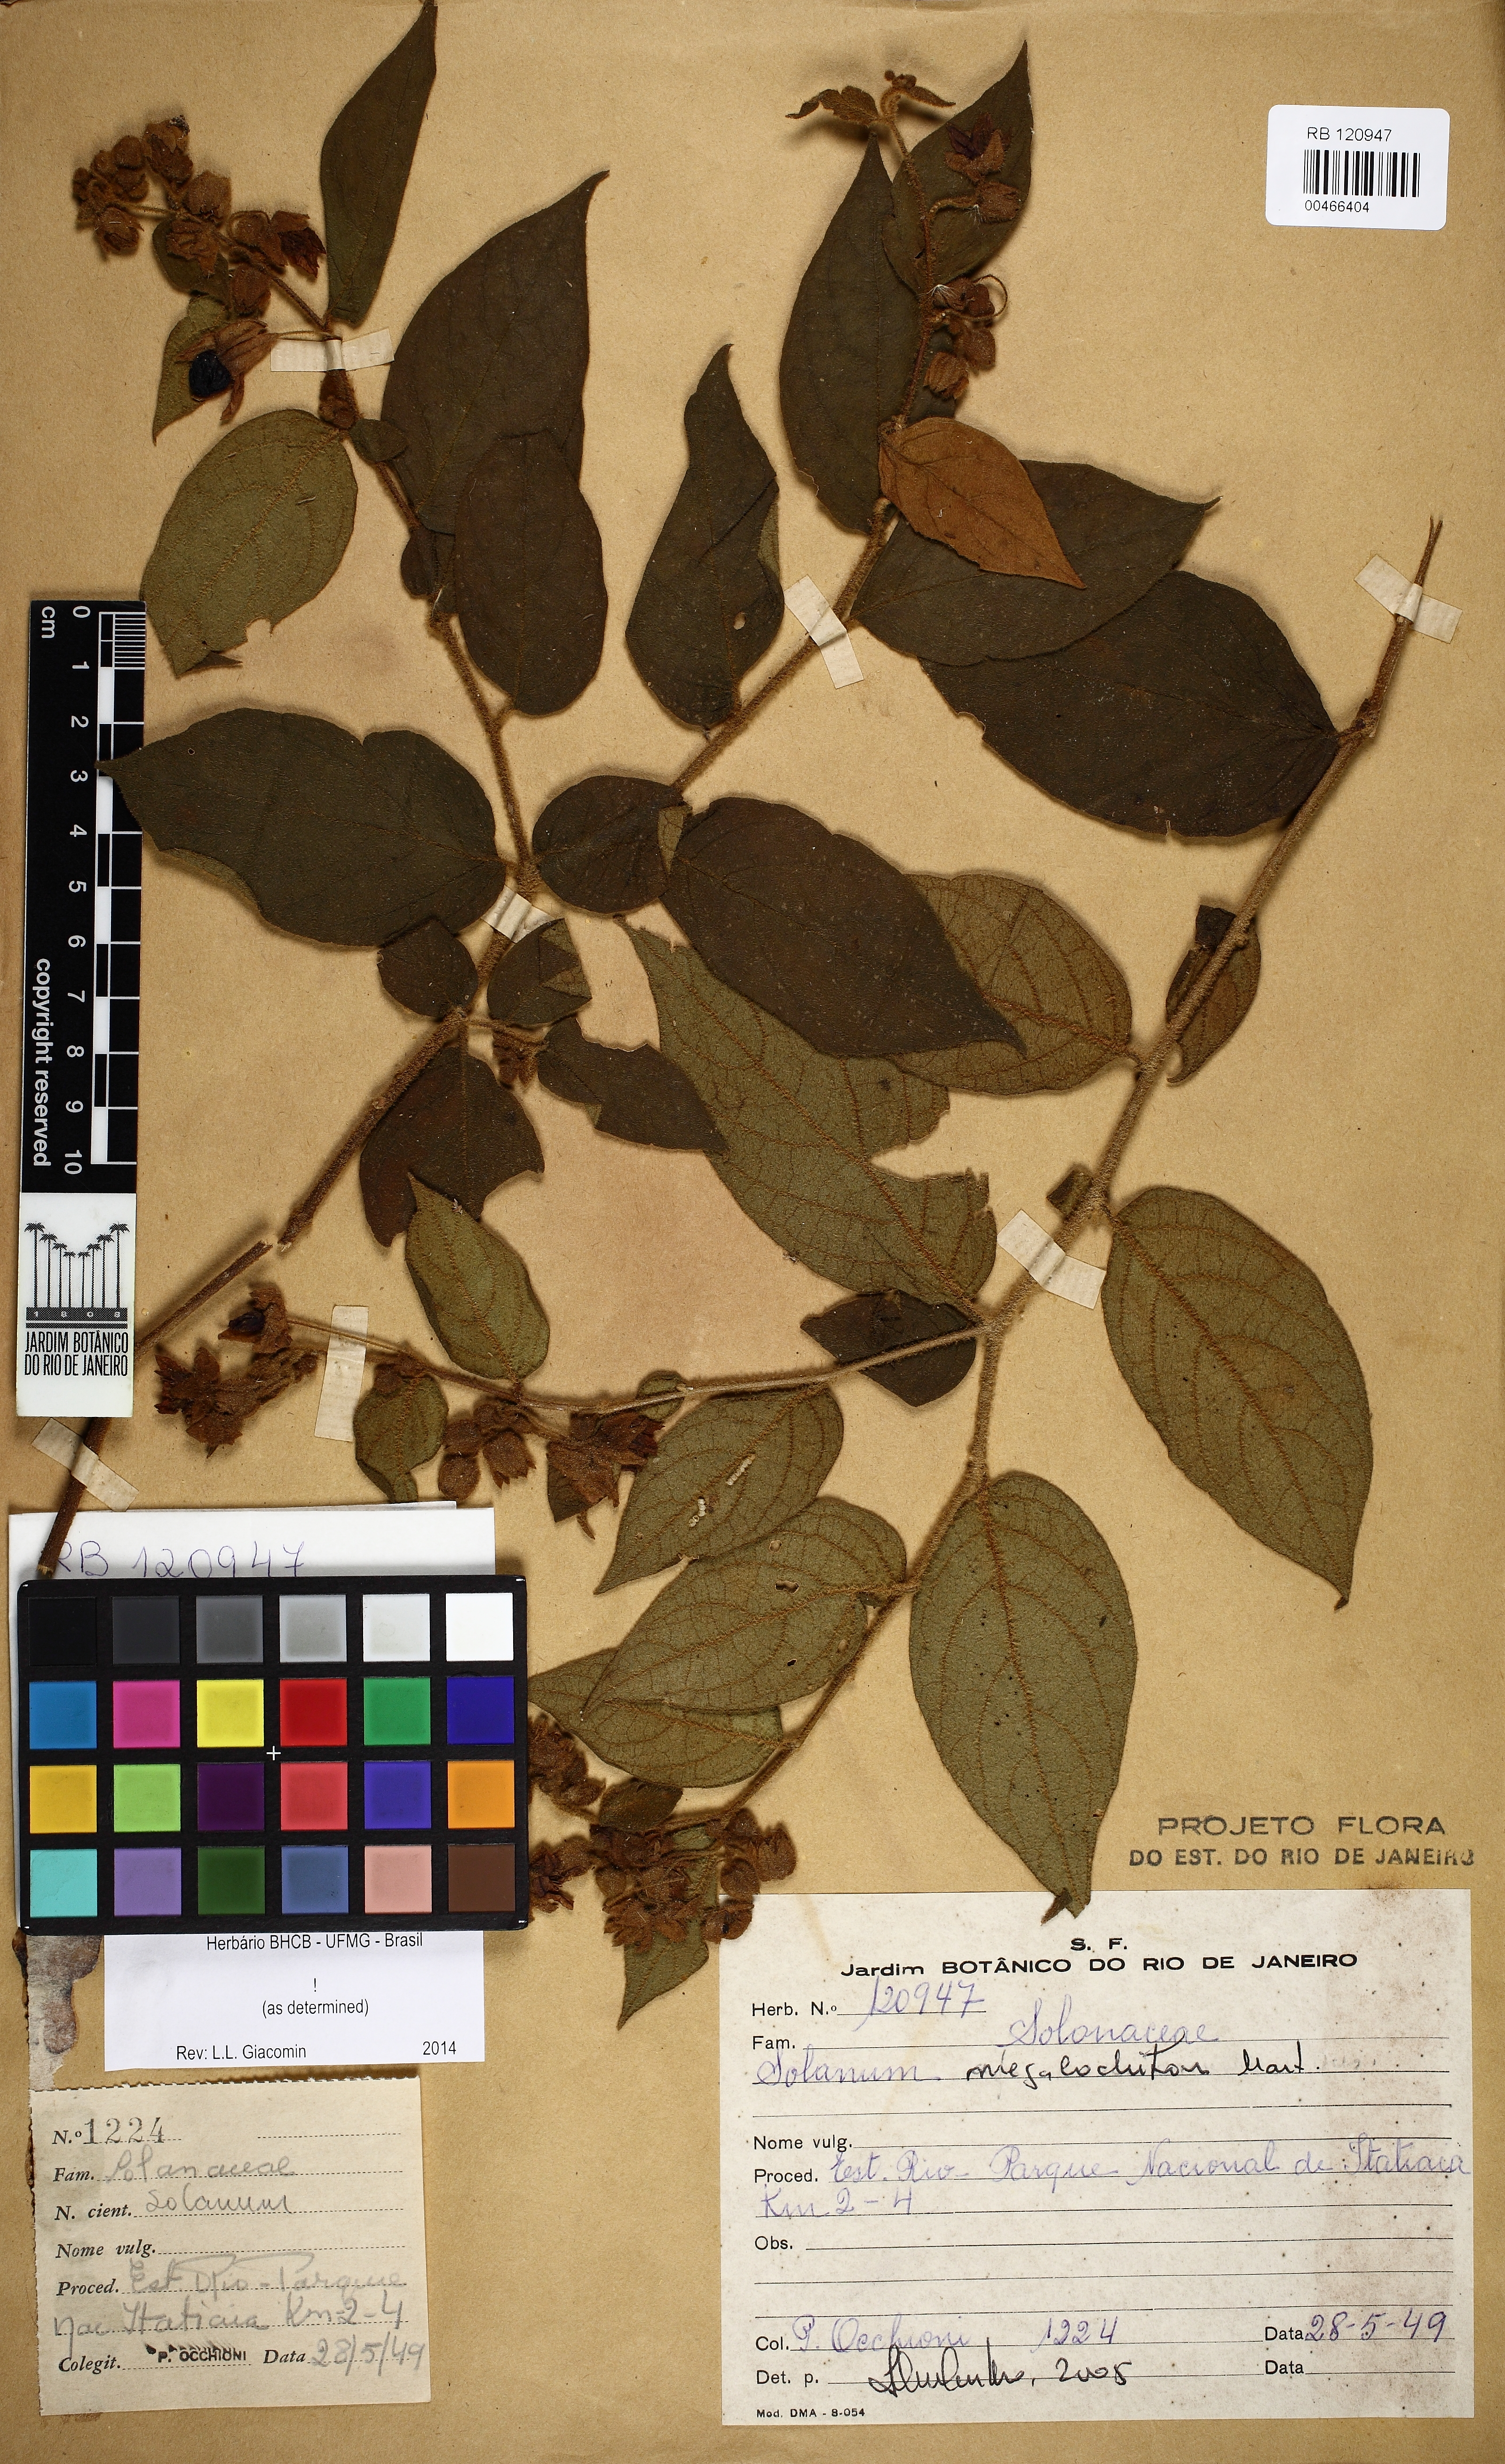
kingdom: Plantae
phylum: Tracheophyta
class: Magnoliopsida
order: Solanales
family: Solanaceae
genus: Solanum
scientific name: Solanum megalochiton
